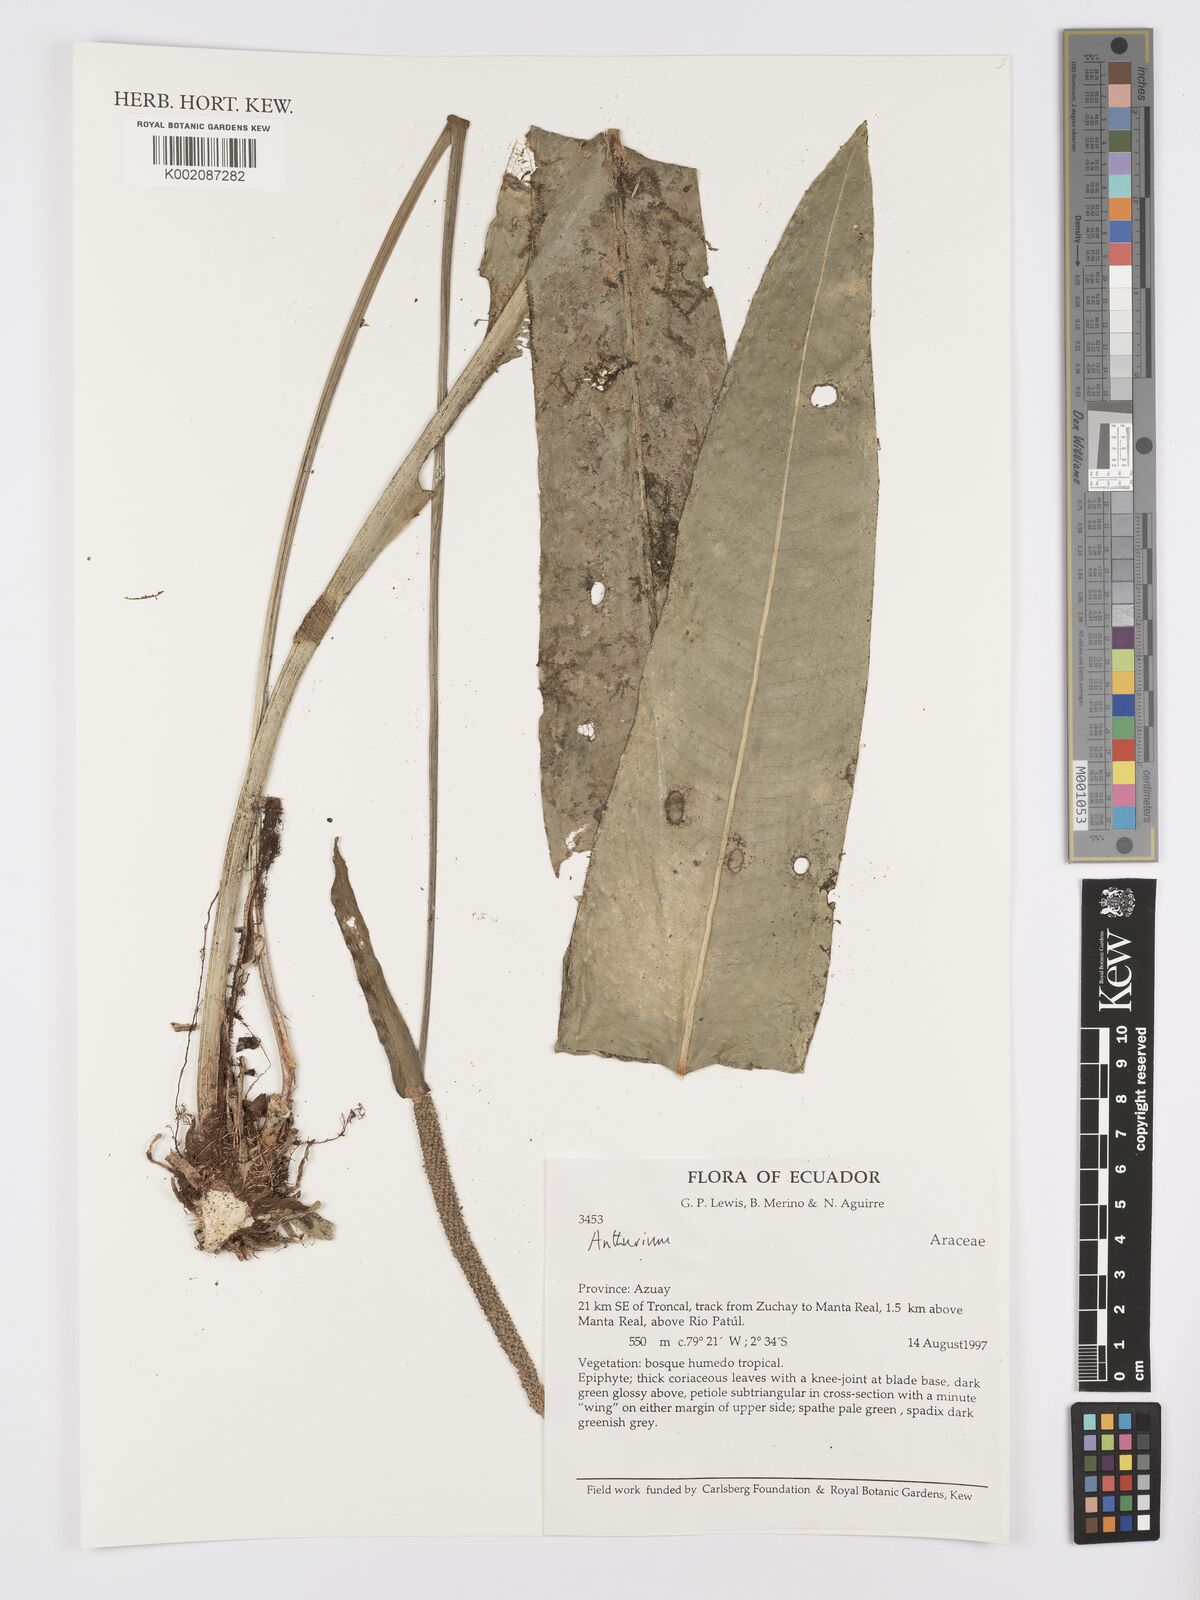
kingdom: Plantae
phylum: Tracheophyta
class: Liliopsida
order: Alismatales
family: Araceae
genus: Anthurium
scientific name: Anthurium
